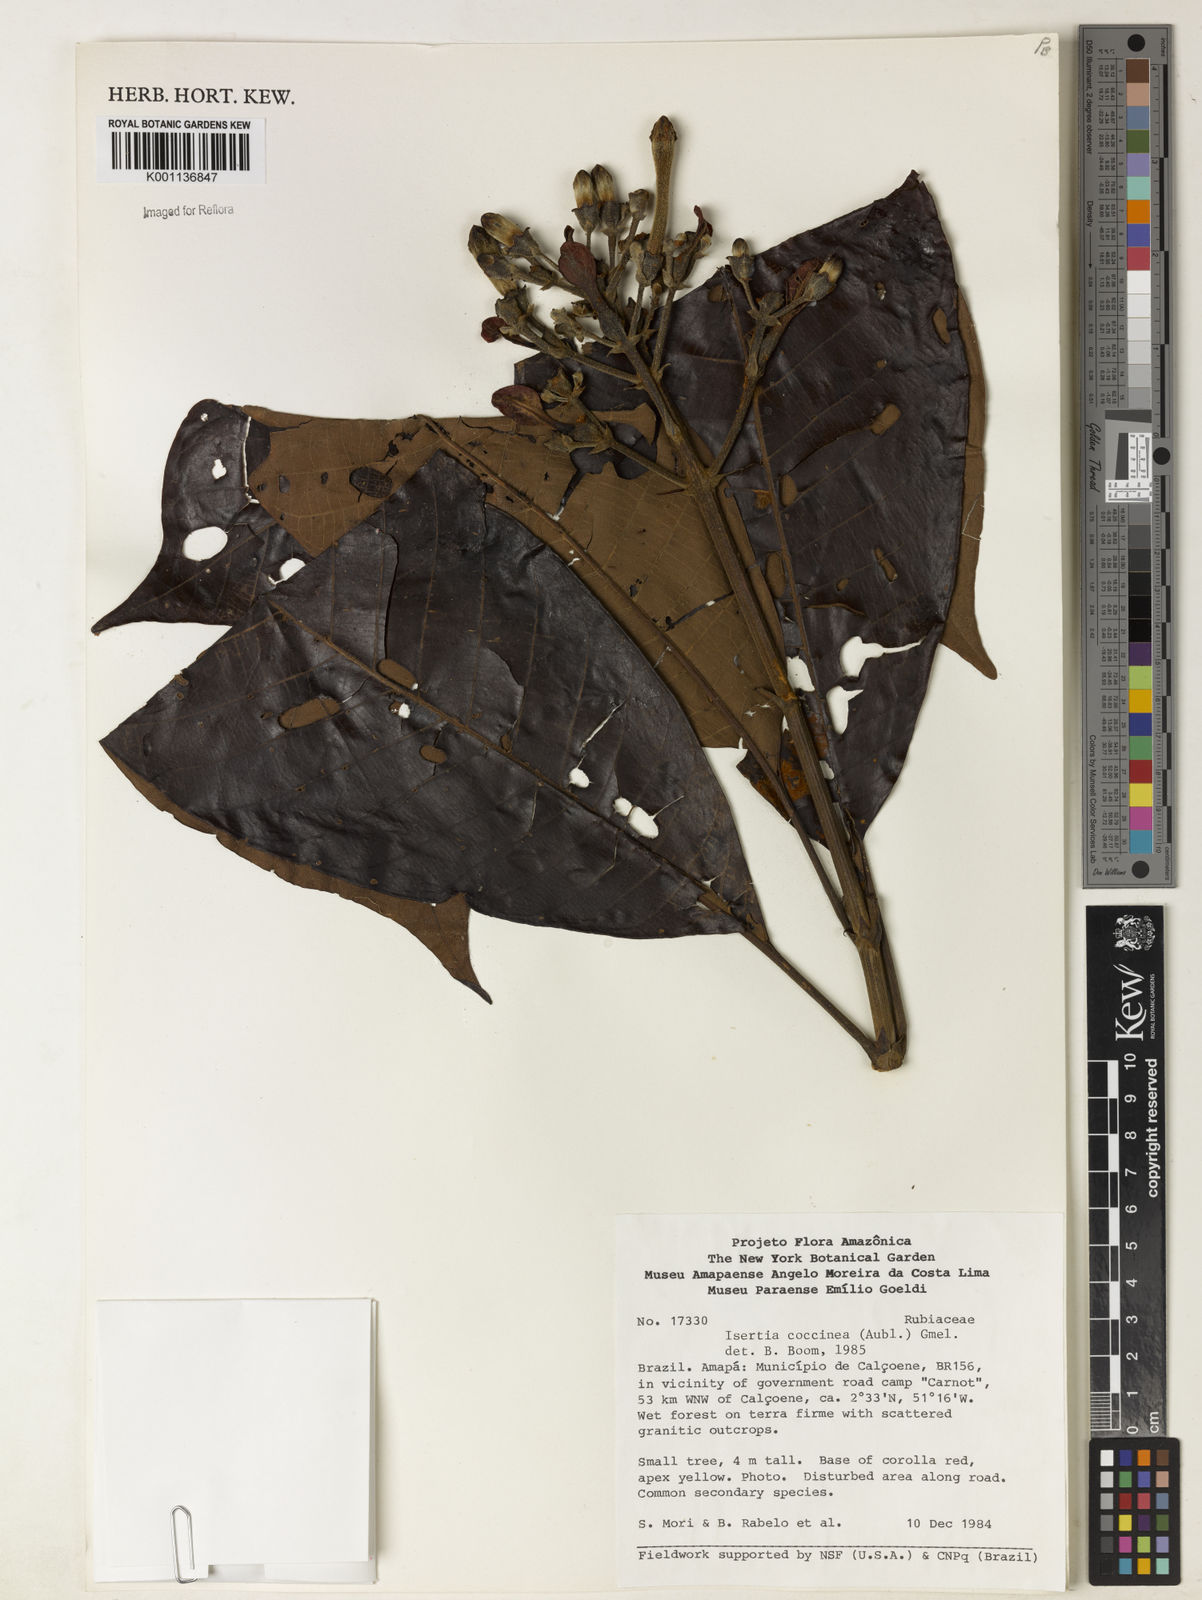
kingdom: Plantae
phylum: Tracheophyta
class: Magnoliopsida
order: Gentianales
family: Rubiaceae
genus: Isertia
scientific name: Isertia coccinea
